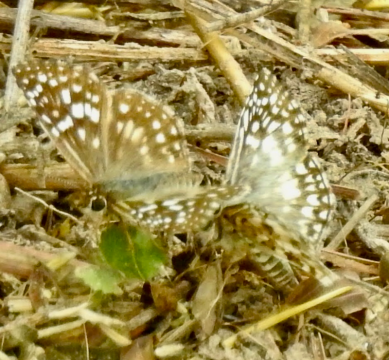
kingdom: Animalia
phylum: Arthropoda
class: Insecta
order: Lepidoptera
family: Hesperiidae
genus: Pyrgus
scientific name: Pyrgus oileus
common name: Tropical Checkered-Skipper
